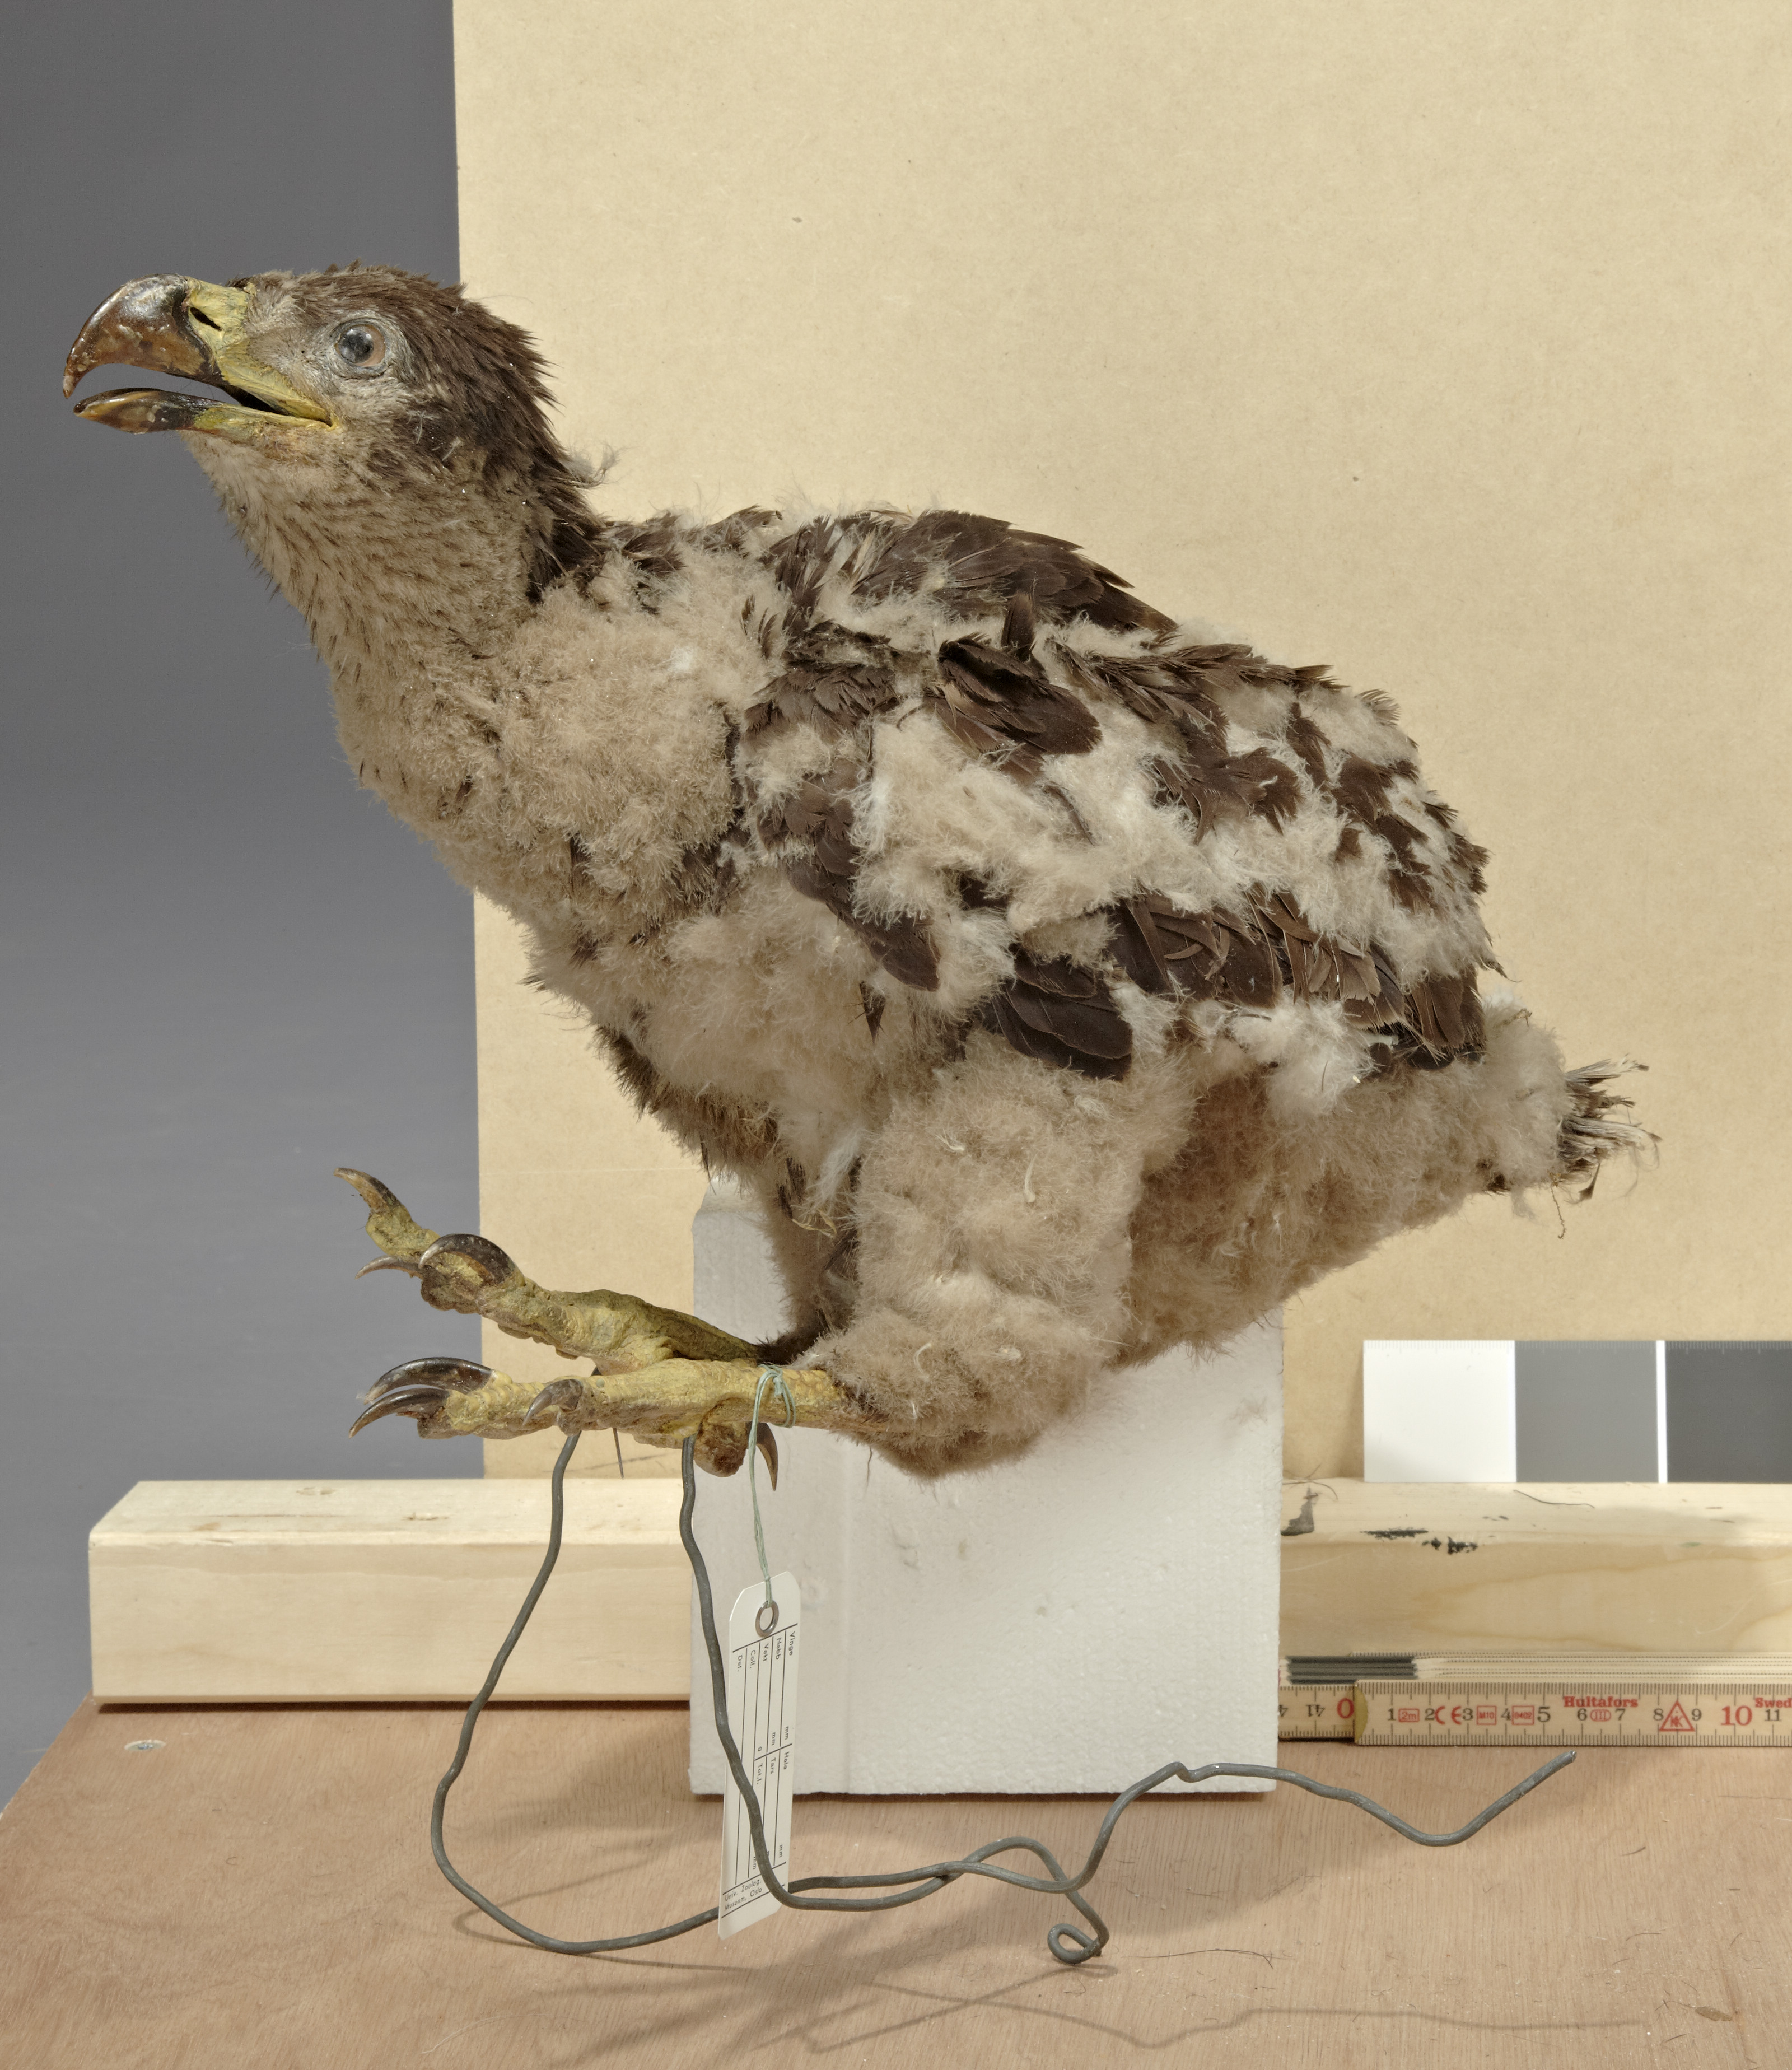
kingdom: Animalia
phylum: Chordata
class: Aves
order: Accipitriformes
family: Accipitridae
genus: Haliaeetus
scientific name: Haliaeetus albicilla
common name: White-tailed eagle
